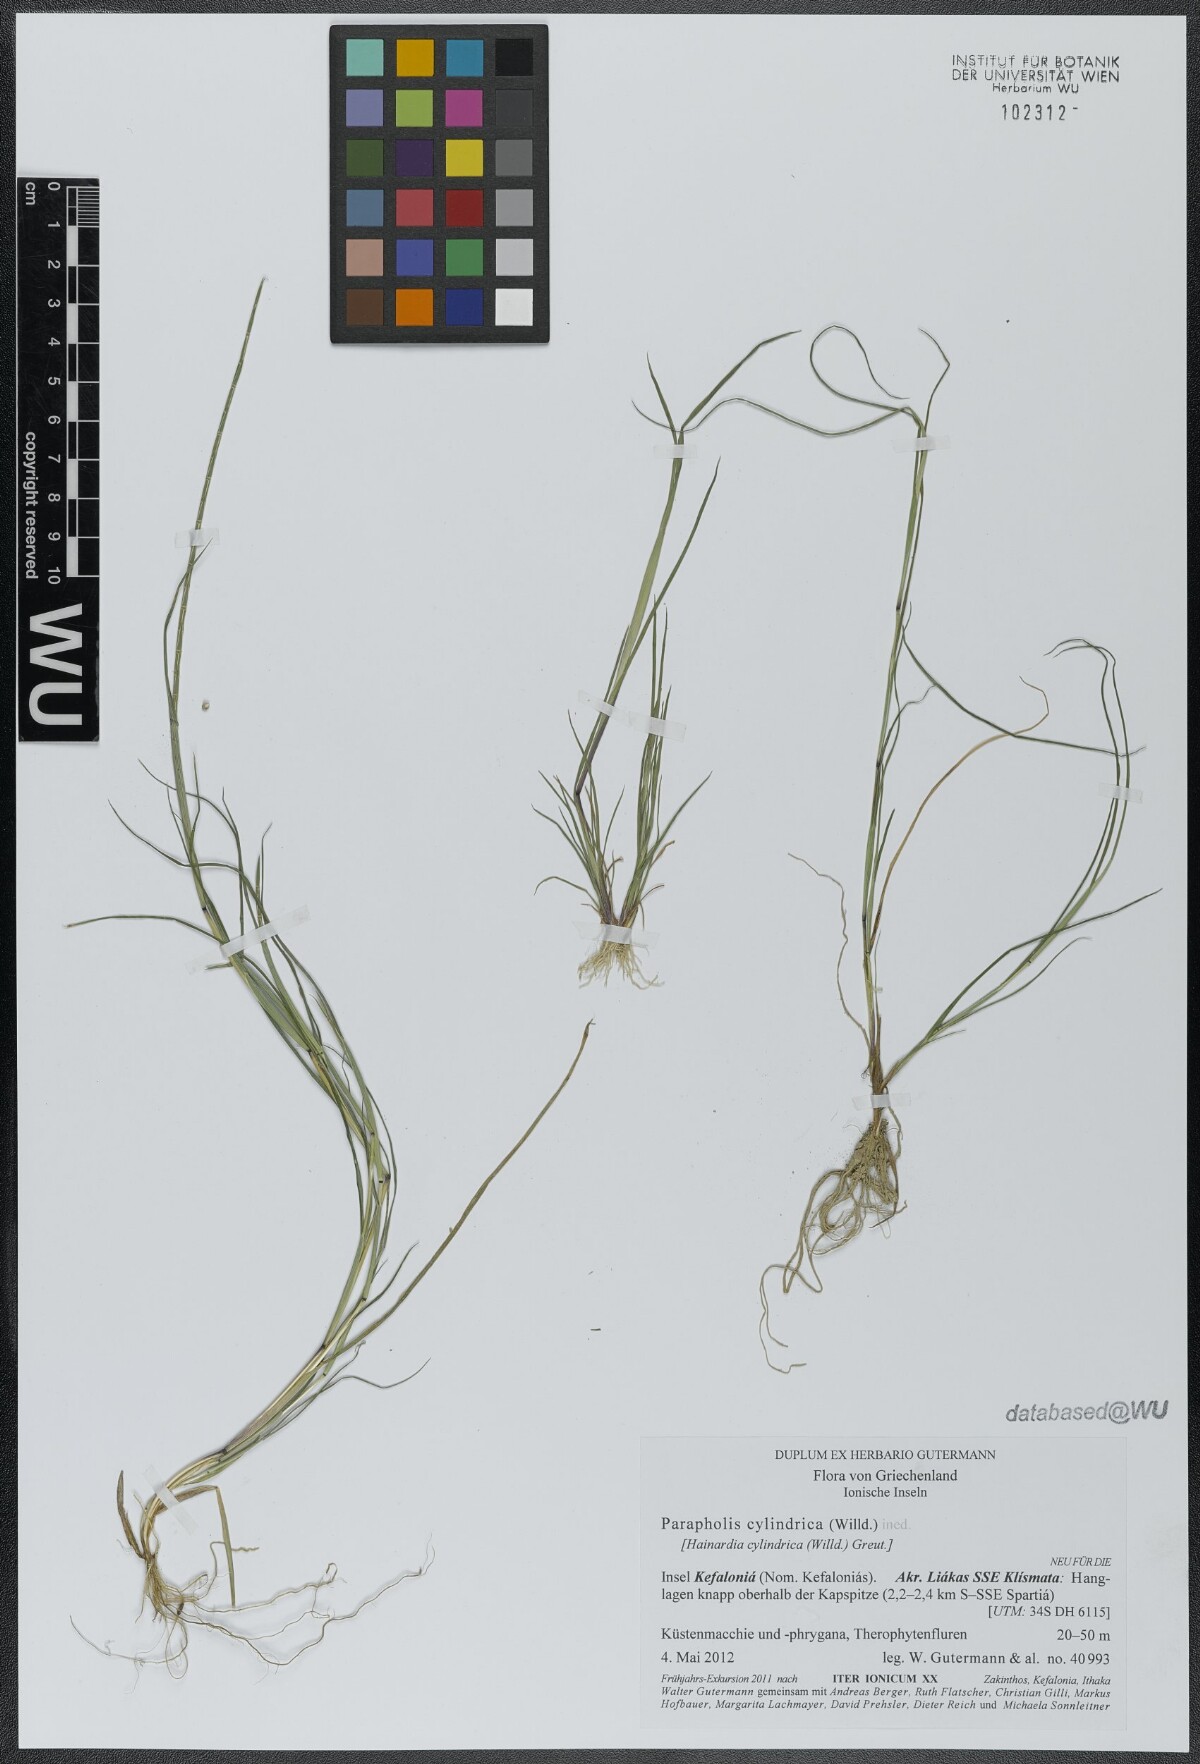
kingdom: Plantae
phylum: Tracheophyta
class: Liliopsida
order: Poales
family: Poaceae
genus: Parapholis
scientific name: Parapholis cylindrica
